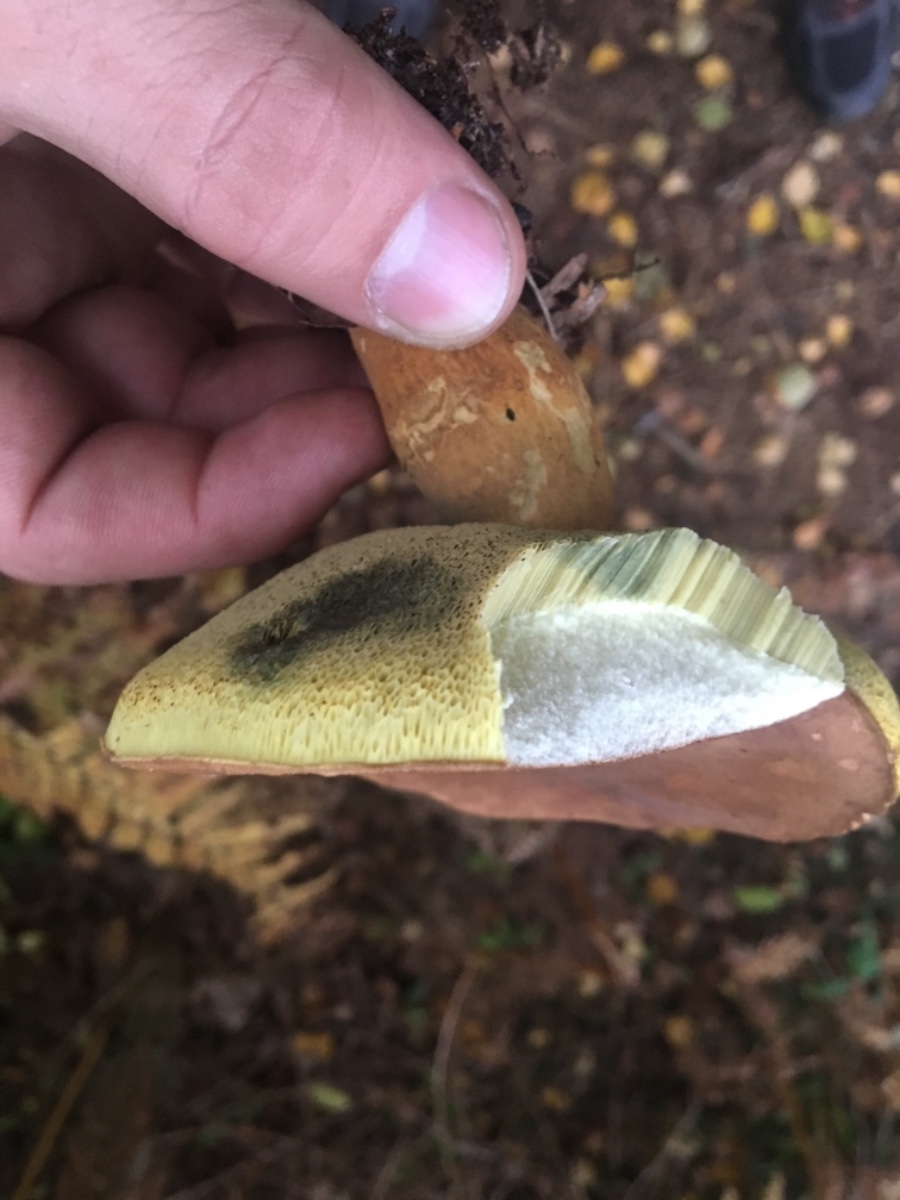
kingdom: Fungi
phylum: Basidiomycota
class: Agaricomycetes
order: Boletales
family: Boletaceae
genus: Imleria
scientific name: Imleria badia
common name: brunstokket rørhat
